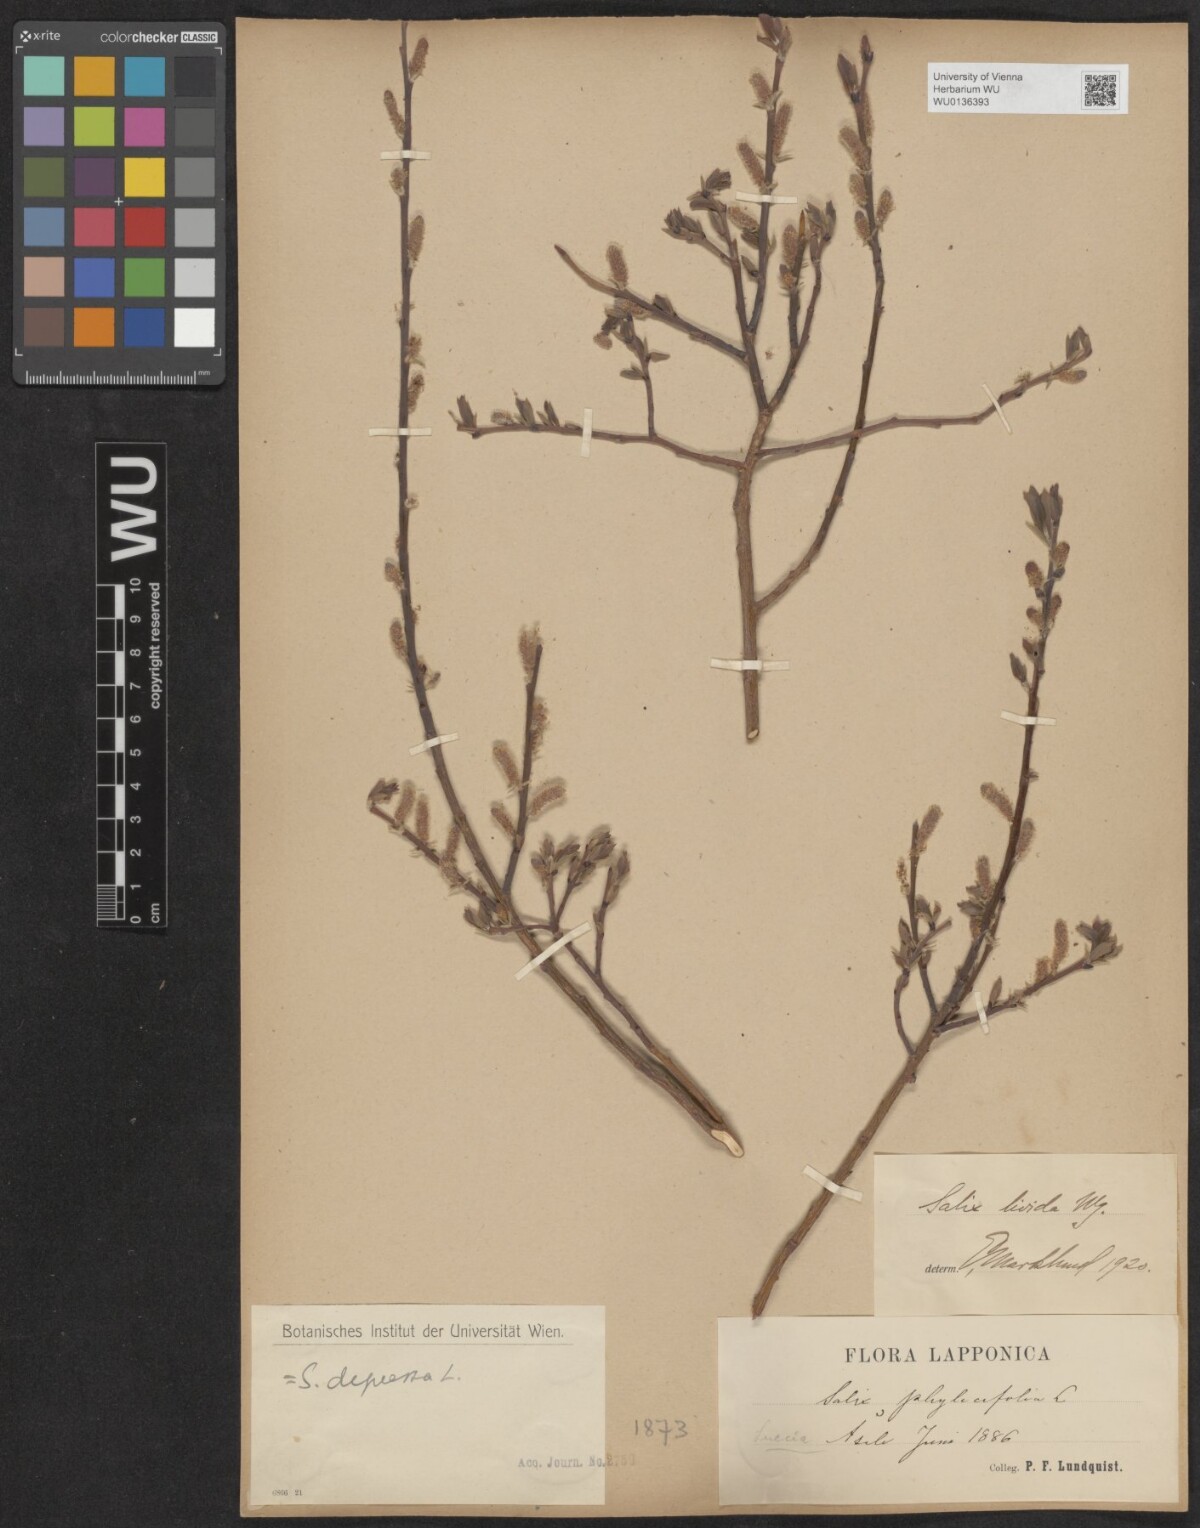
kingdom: Plantae
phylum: Tracheophyta
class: Magnoliopsida
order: Malpighiales
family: Salicaceae
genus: Salix
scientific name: Salix lanata
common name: Woolly willow
